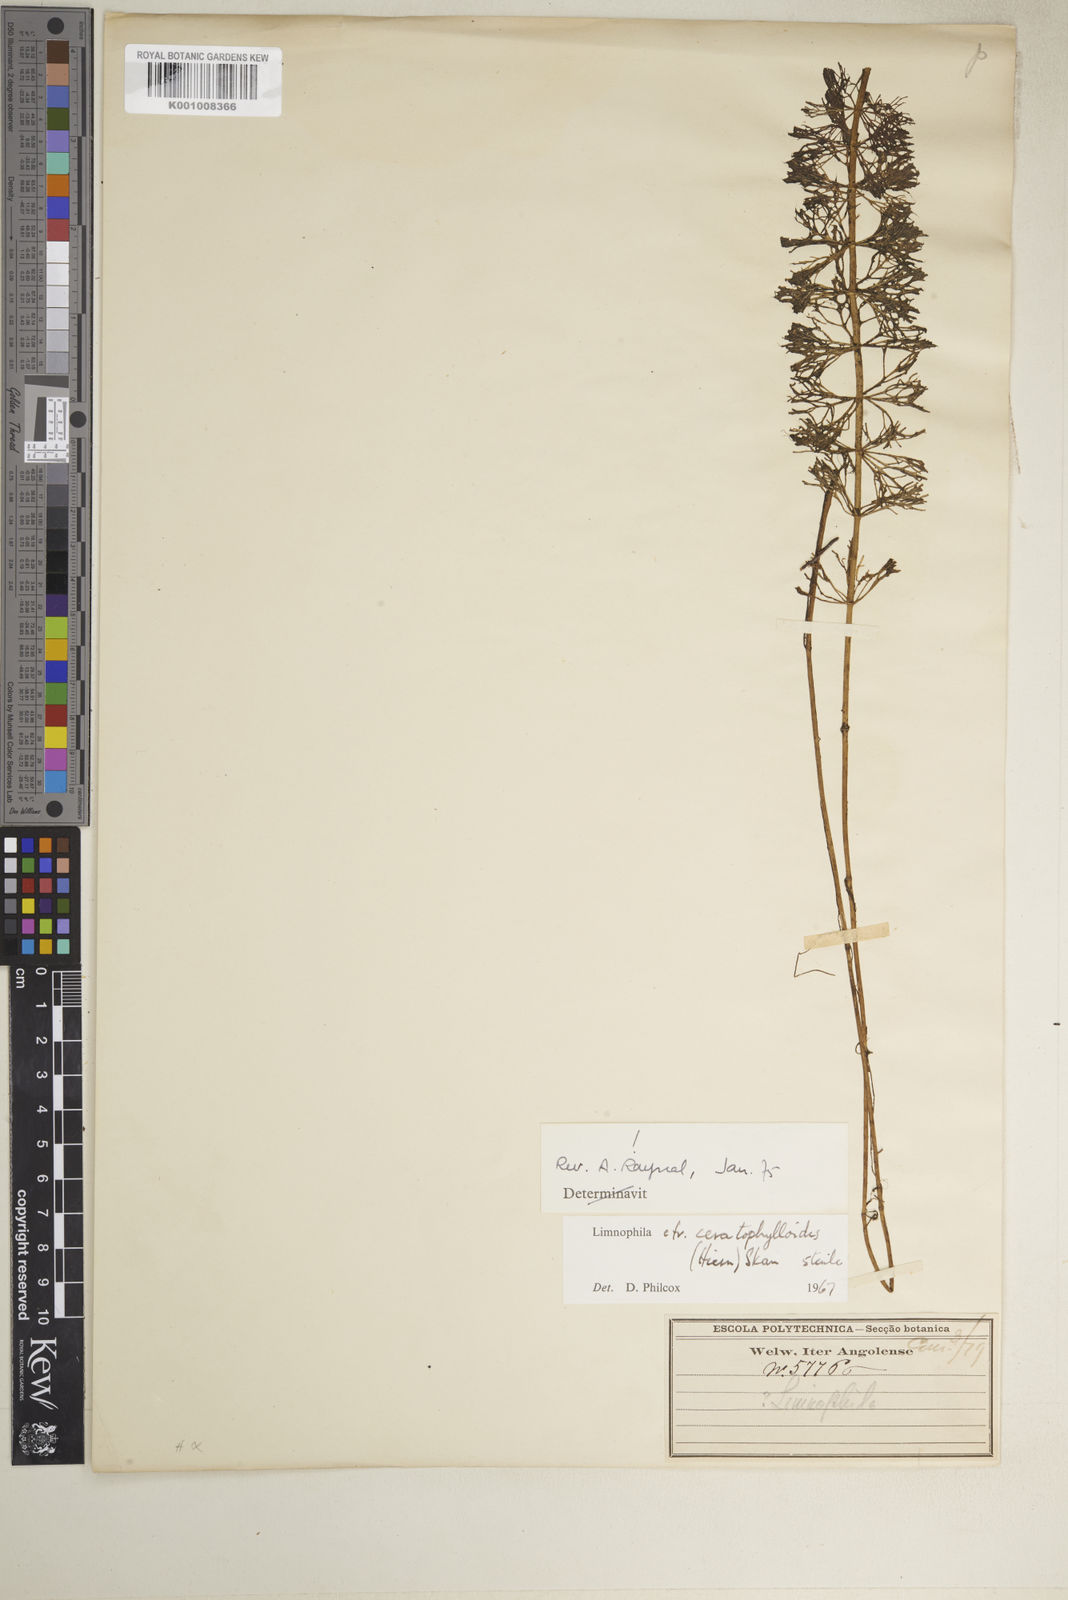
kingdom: Plantae
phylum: Tracheophyta
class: Magnoliopsida
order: Lamiales
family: Plantaginaceae
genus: Limnophila
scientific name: Limnophila ceratophylloides
